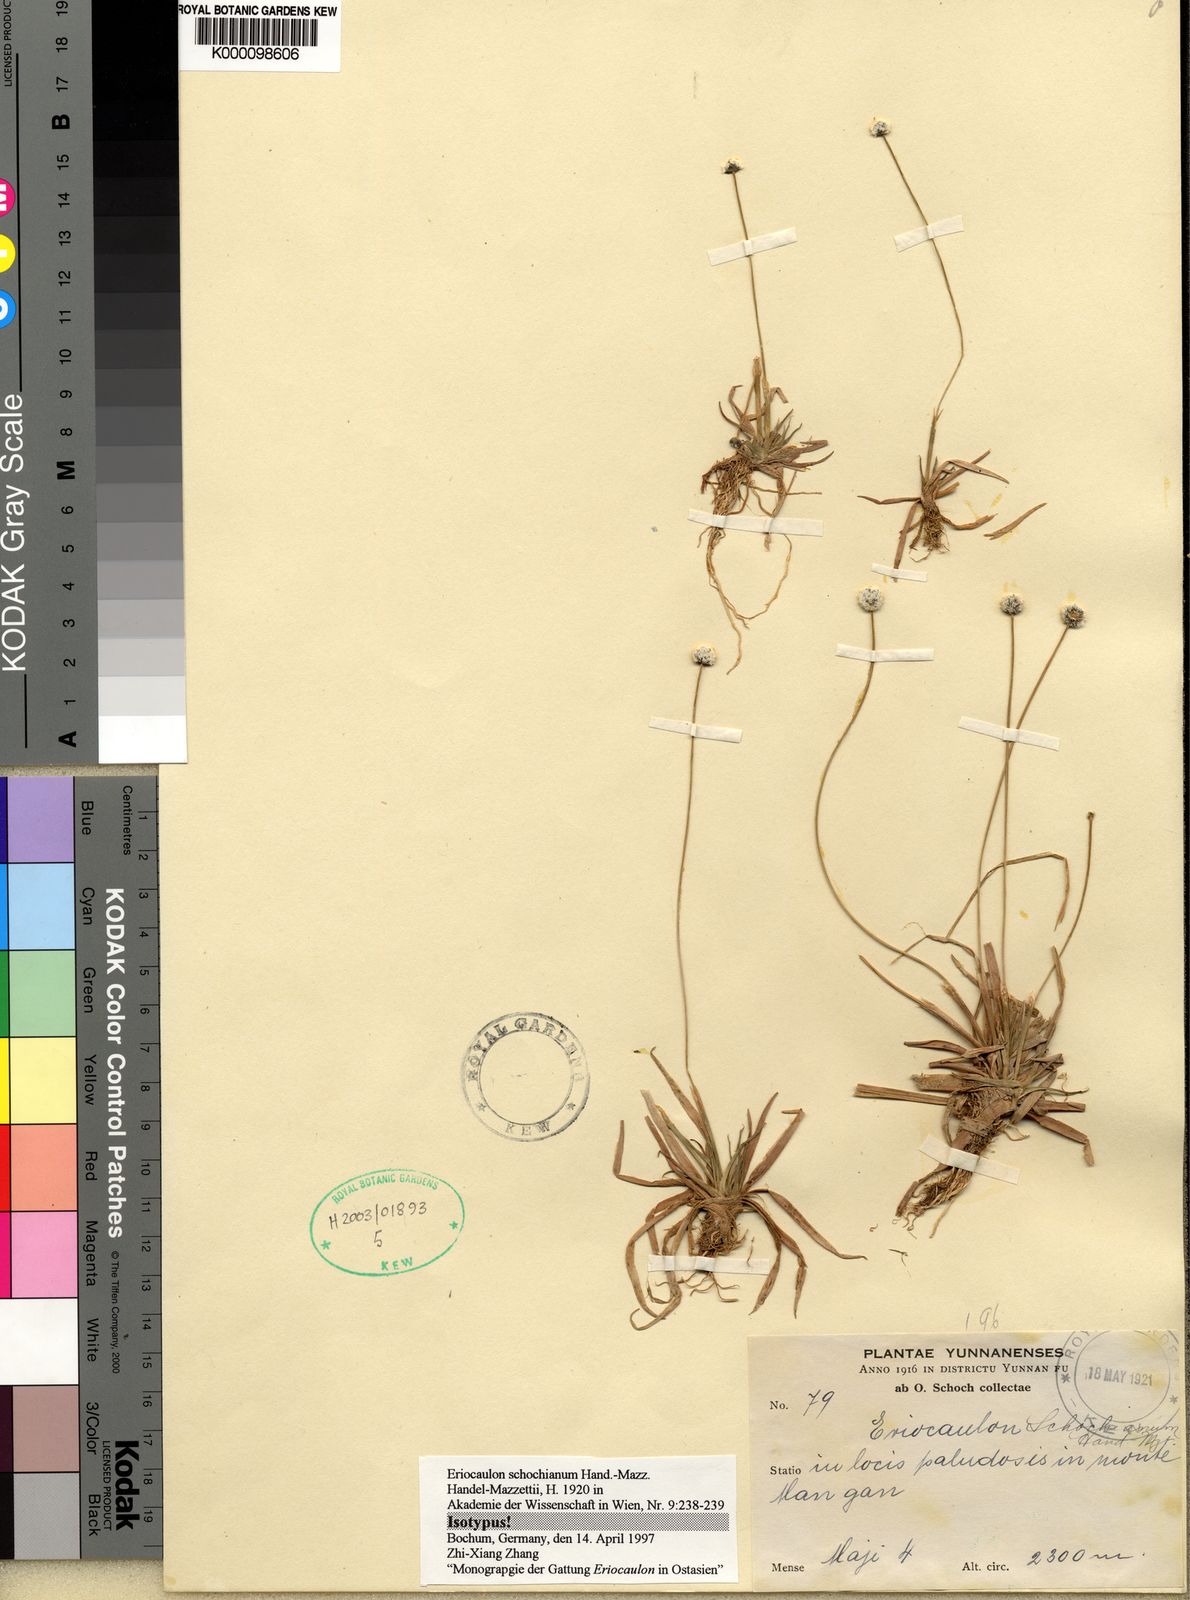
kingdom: Plantae
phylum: Tracheophyta
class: Liliopsida
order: Poales
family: Eriocaulaceae
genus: Eriocaulon
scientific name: Eriocaulon schochianum
